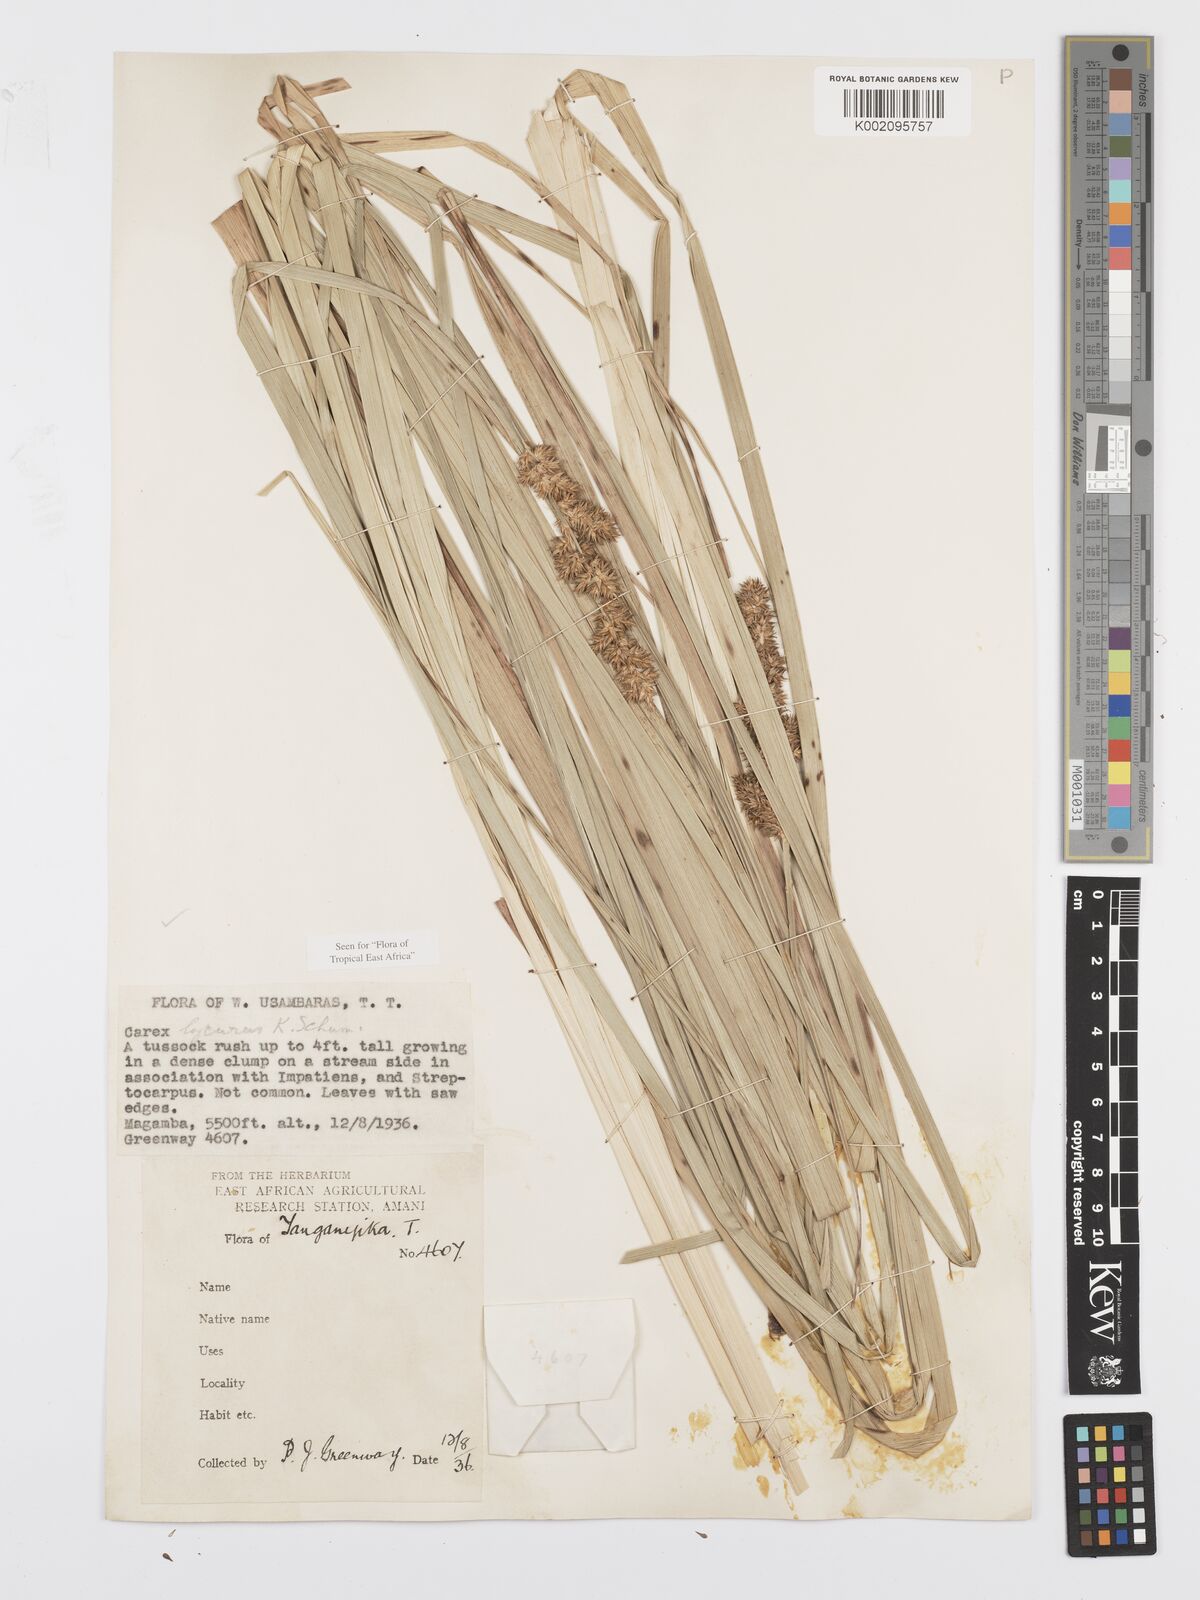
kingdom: Plantae
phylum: Tracheophyta
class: Liliopsida
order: Poales
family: Cyperaceae
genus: Carex
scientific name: Carex lycurus
